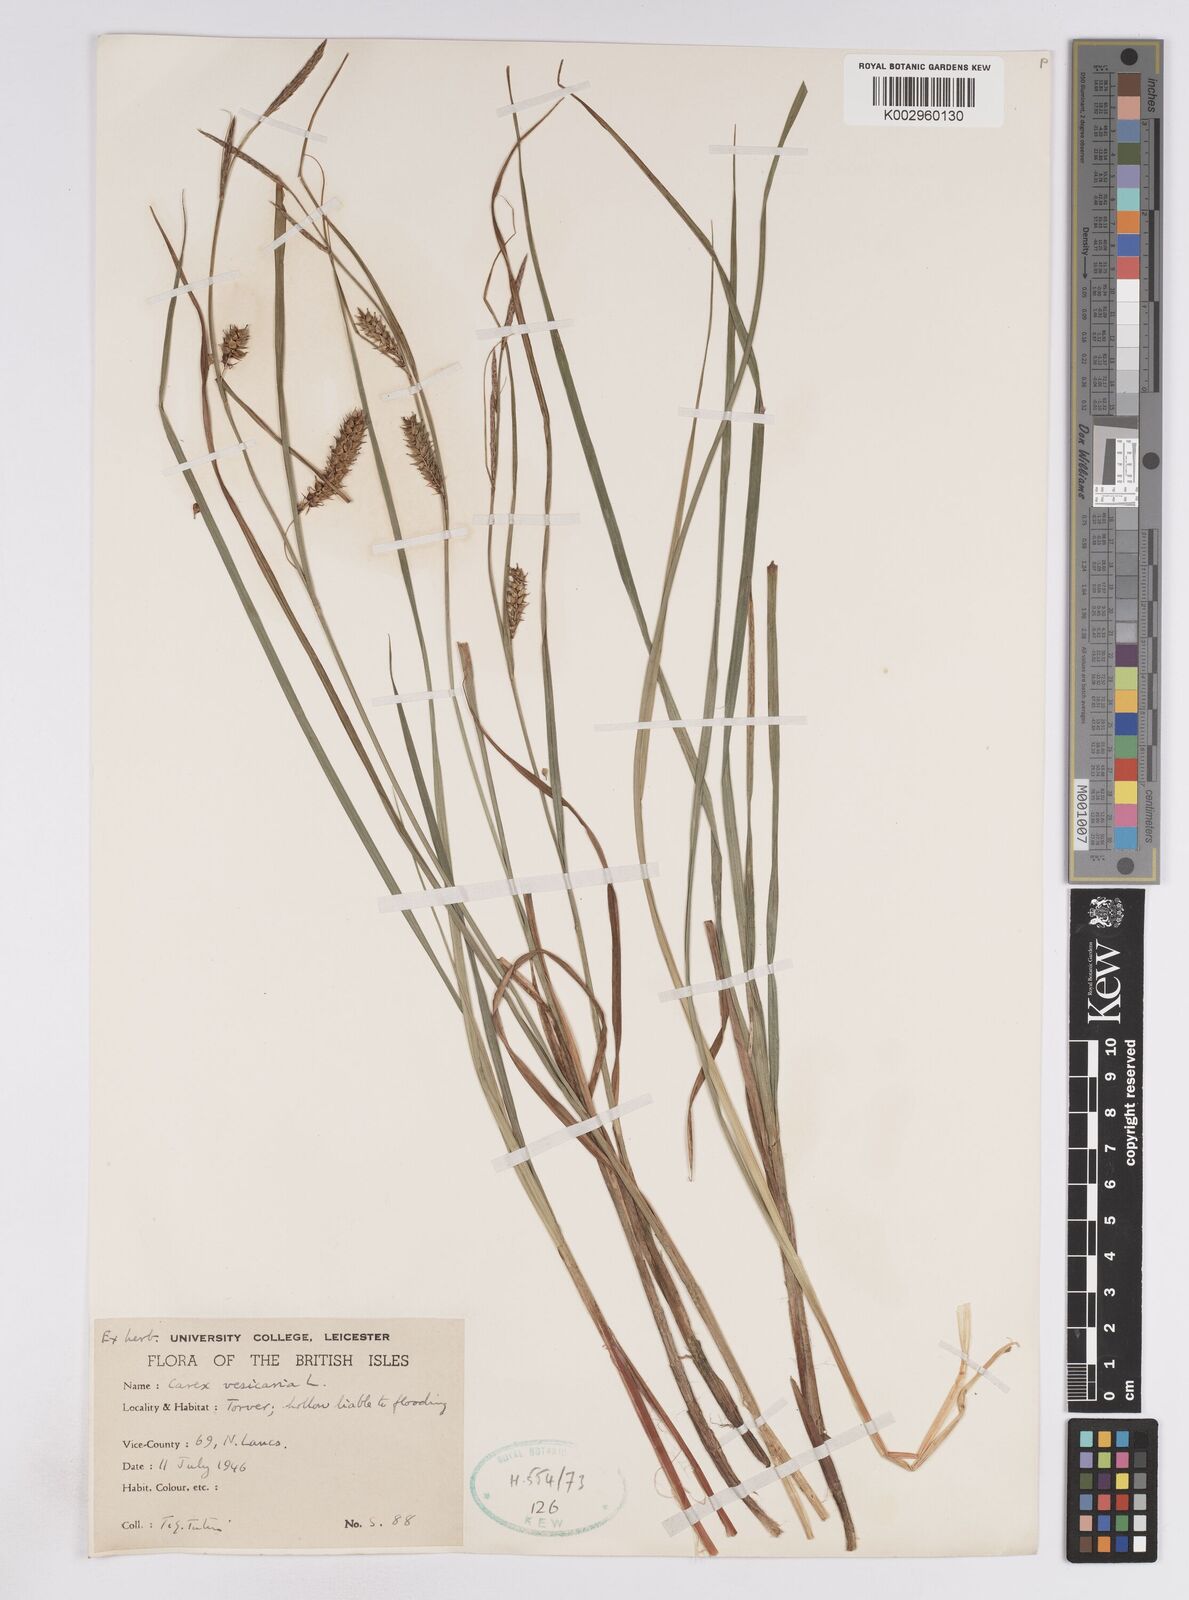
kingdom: Plantae
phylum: Tracheophyta
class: Liliopsida
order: Poales
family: Cyperaceae
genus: Carex
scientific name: Carex vesicaria
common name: Bladder-sedge
